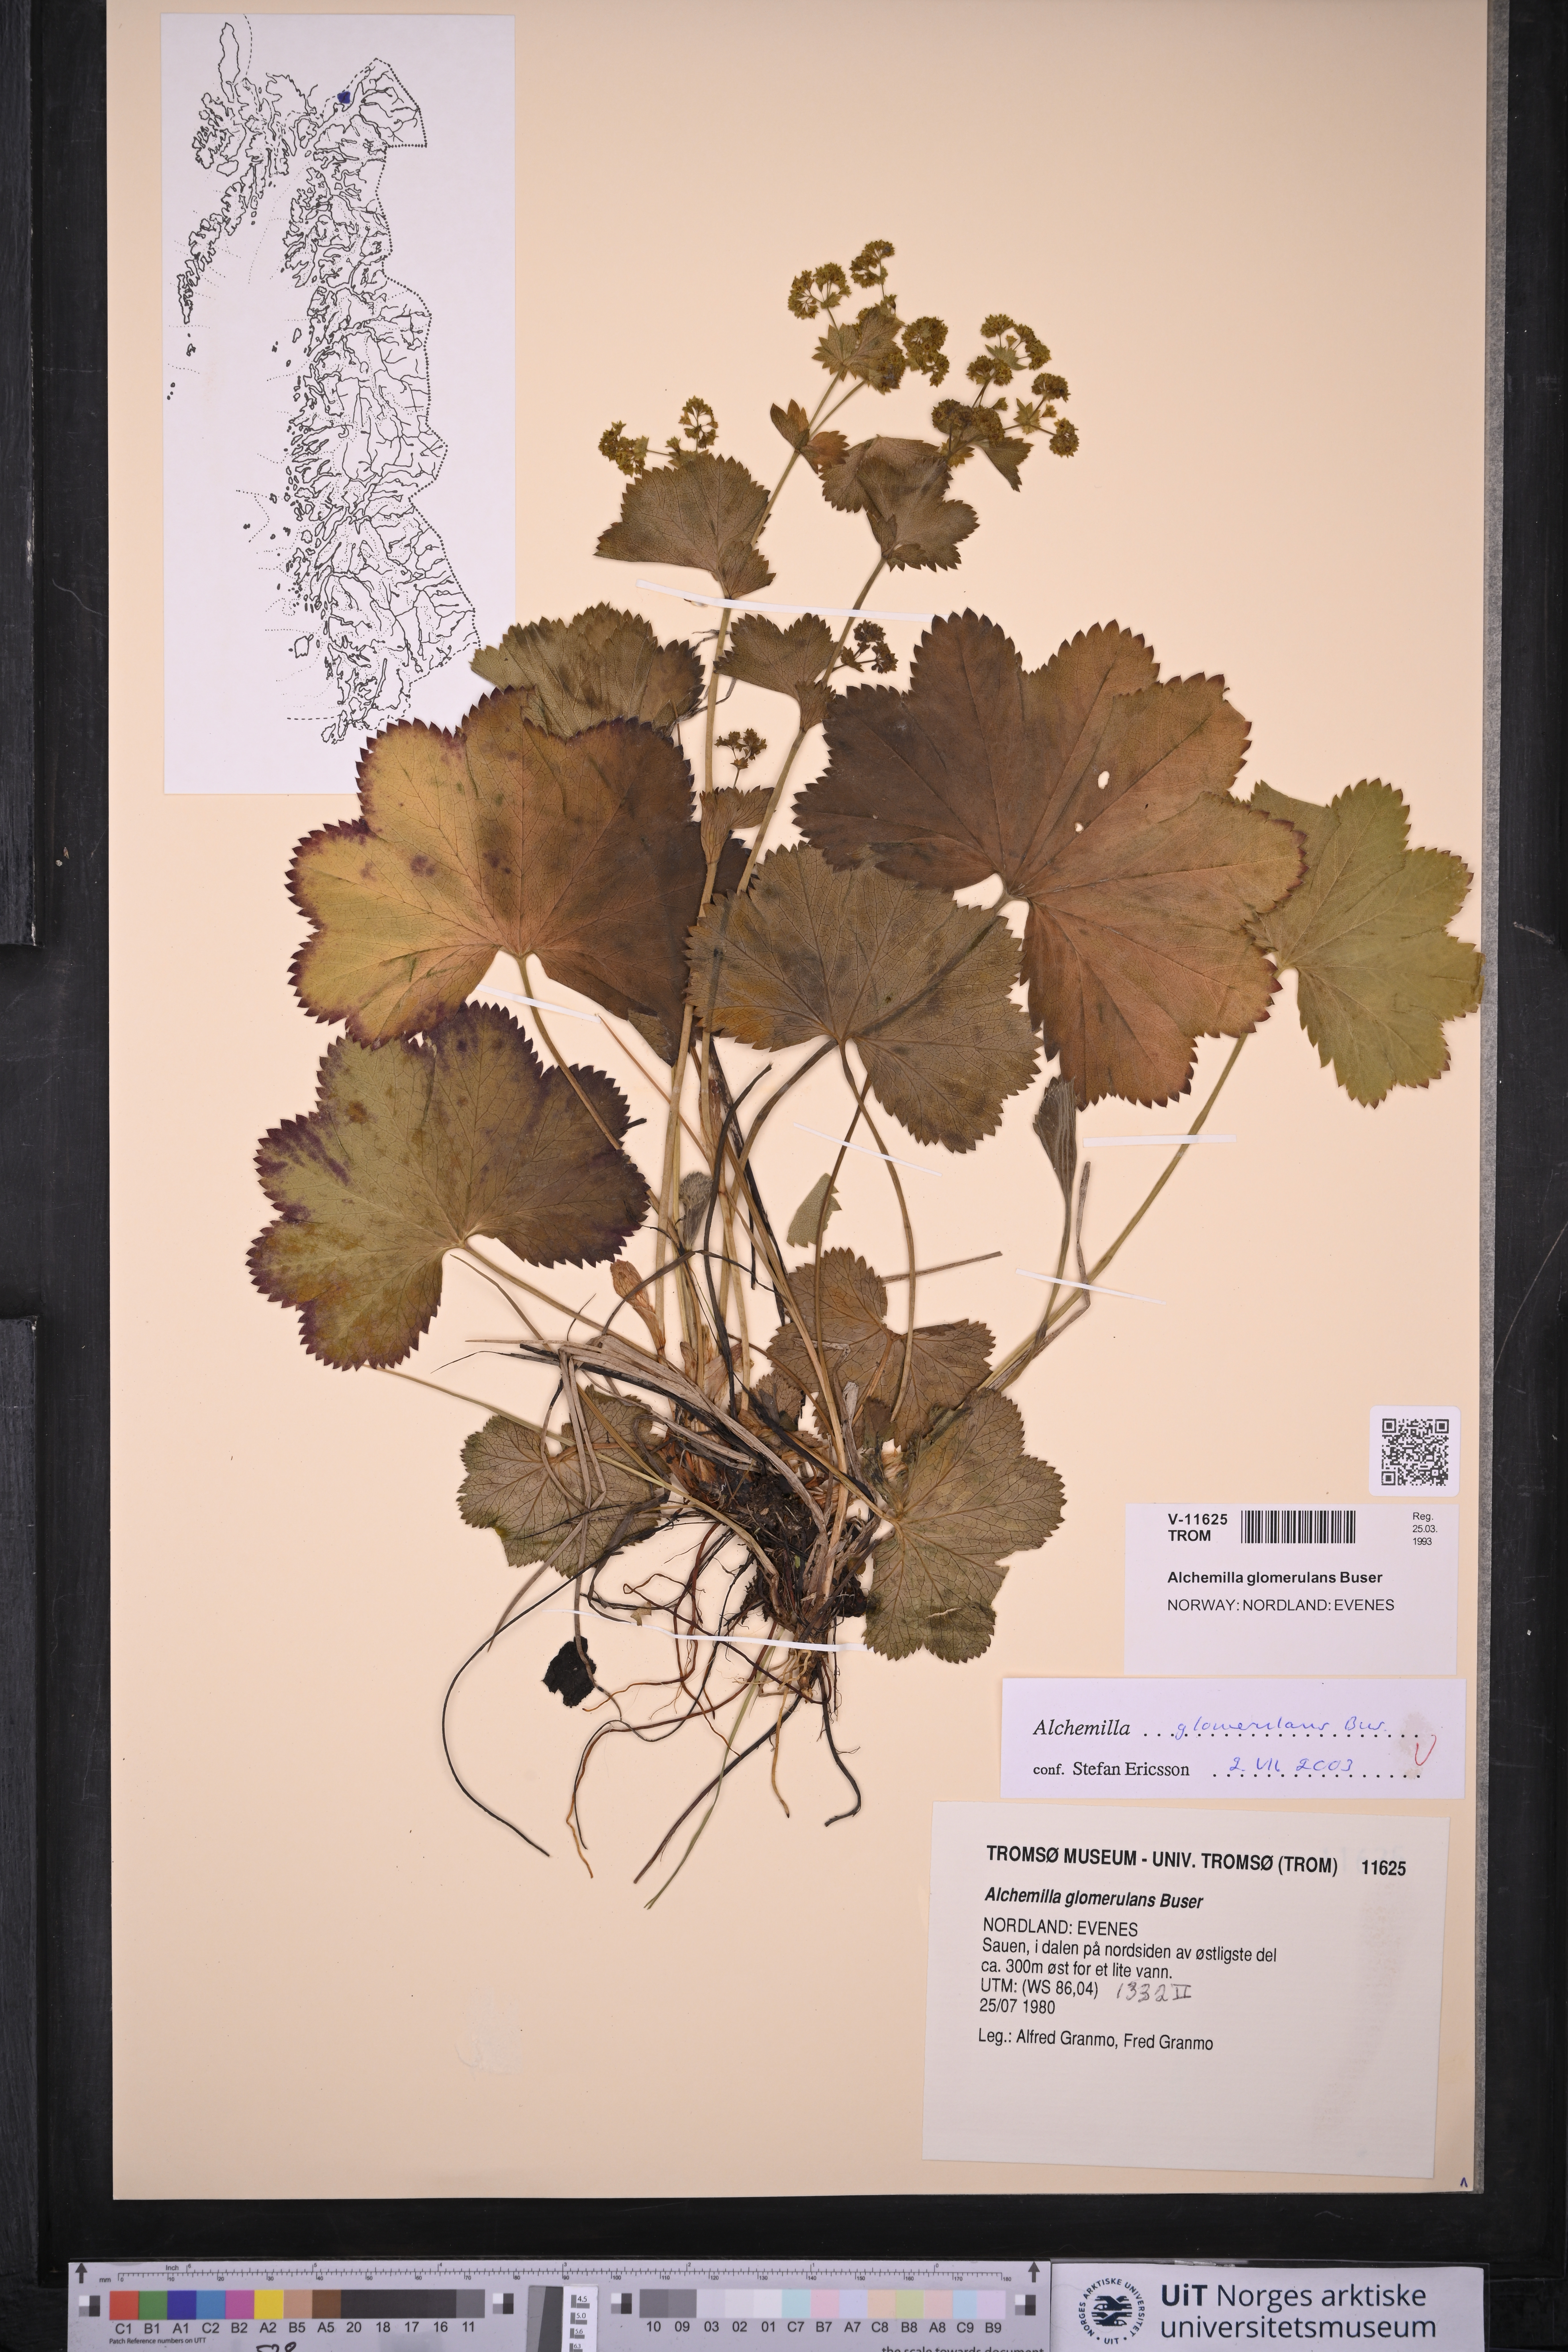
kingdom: Plantae
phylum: Tracheophyta
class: Magnoliopsida
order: Rosales
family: Rosaceae
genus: Alchemilla
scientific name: Alchemilla glomerulans
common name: Clustered lady's mantle
